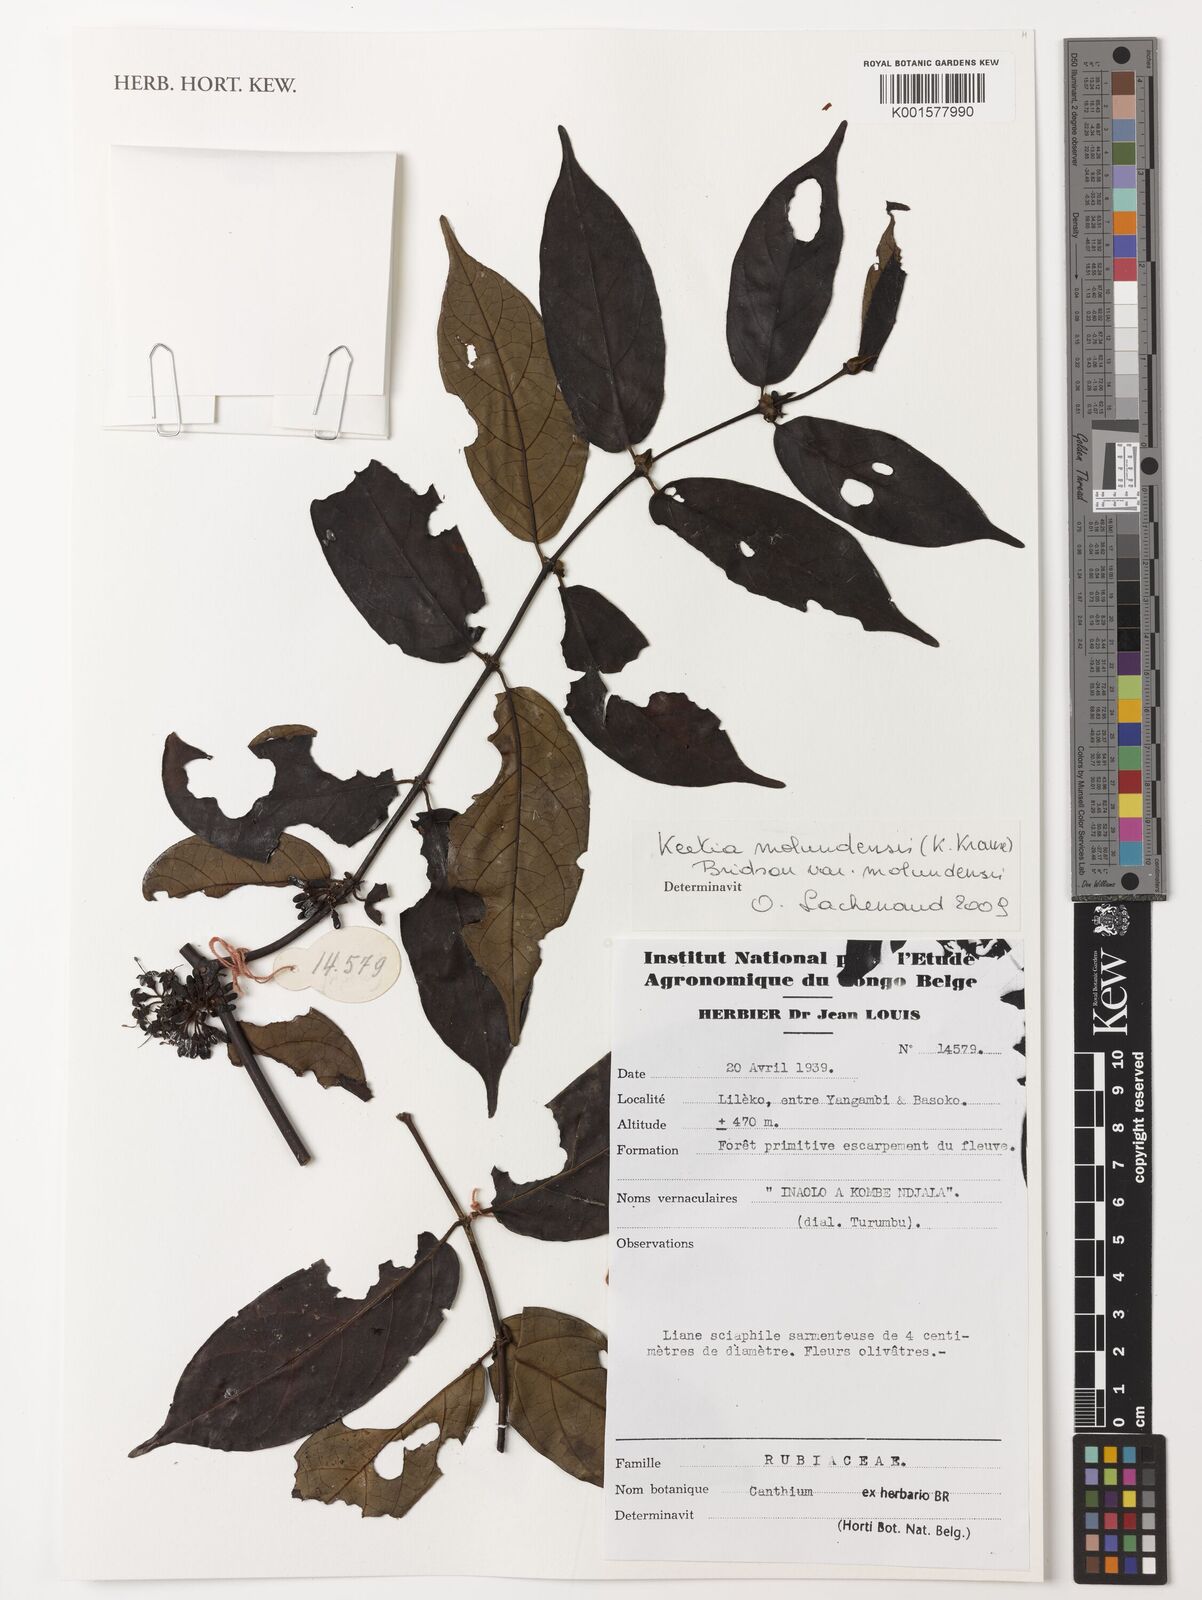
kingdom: Plantae
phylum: Tracheophyta
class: Magnoliopsida
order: Gentianales
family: Rubiaceae
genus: Keetia
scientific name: Keetia molundensis
